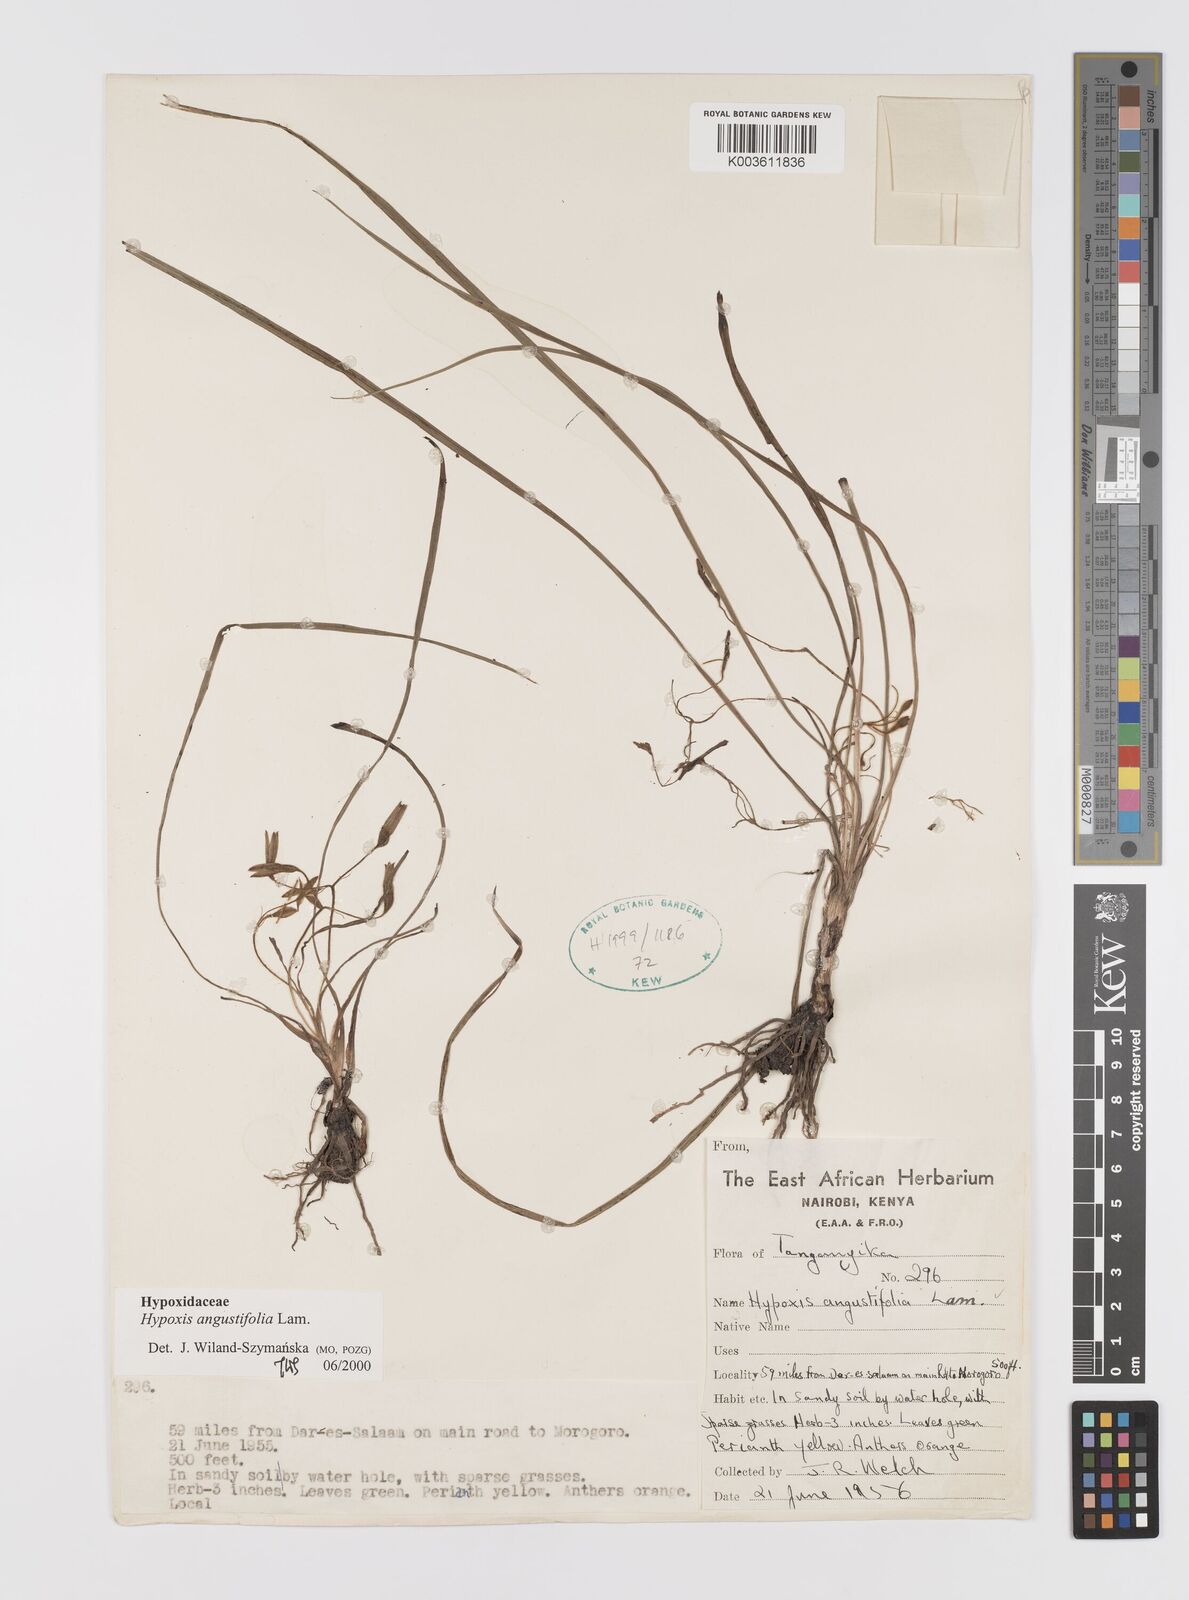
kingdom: Plantae
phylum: Tracheophyta
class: Liliopsida
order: Asparagales
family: Hypoxidaceae
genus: Hypoxis
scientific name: Hypoxis angustifolia
